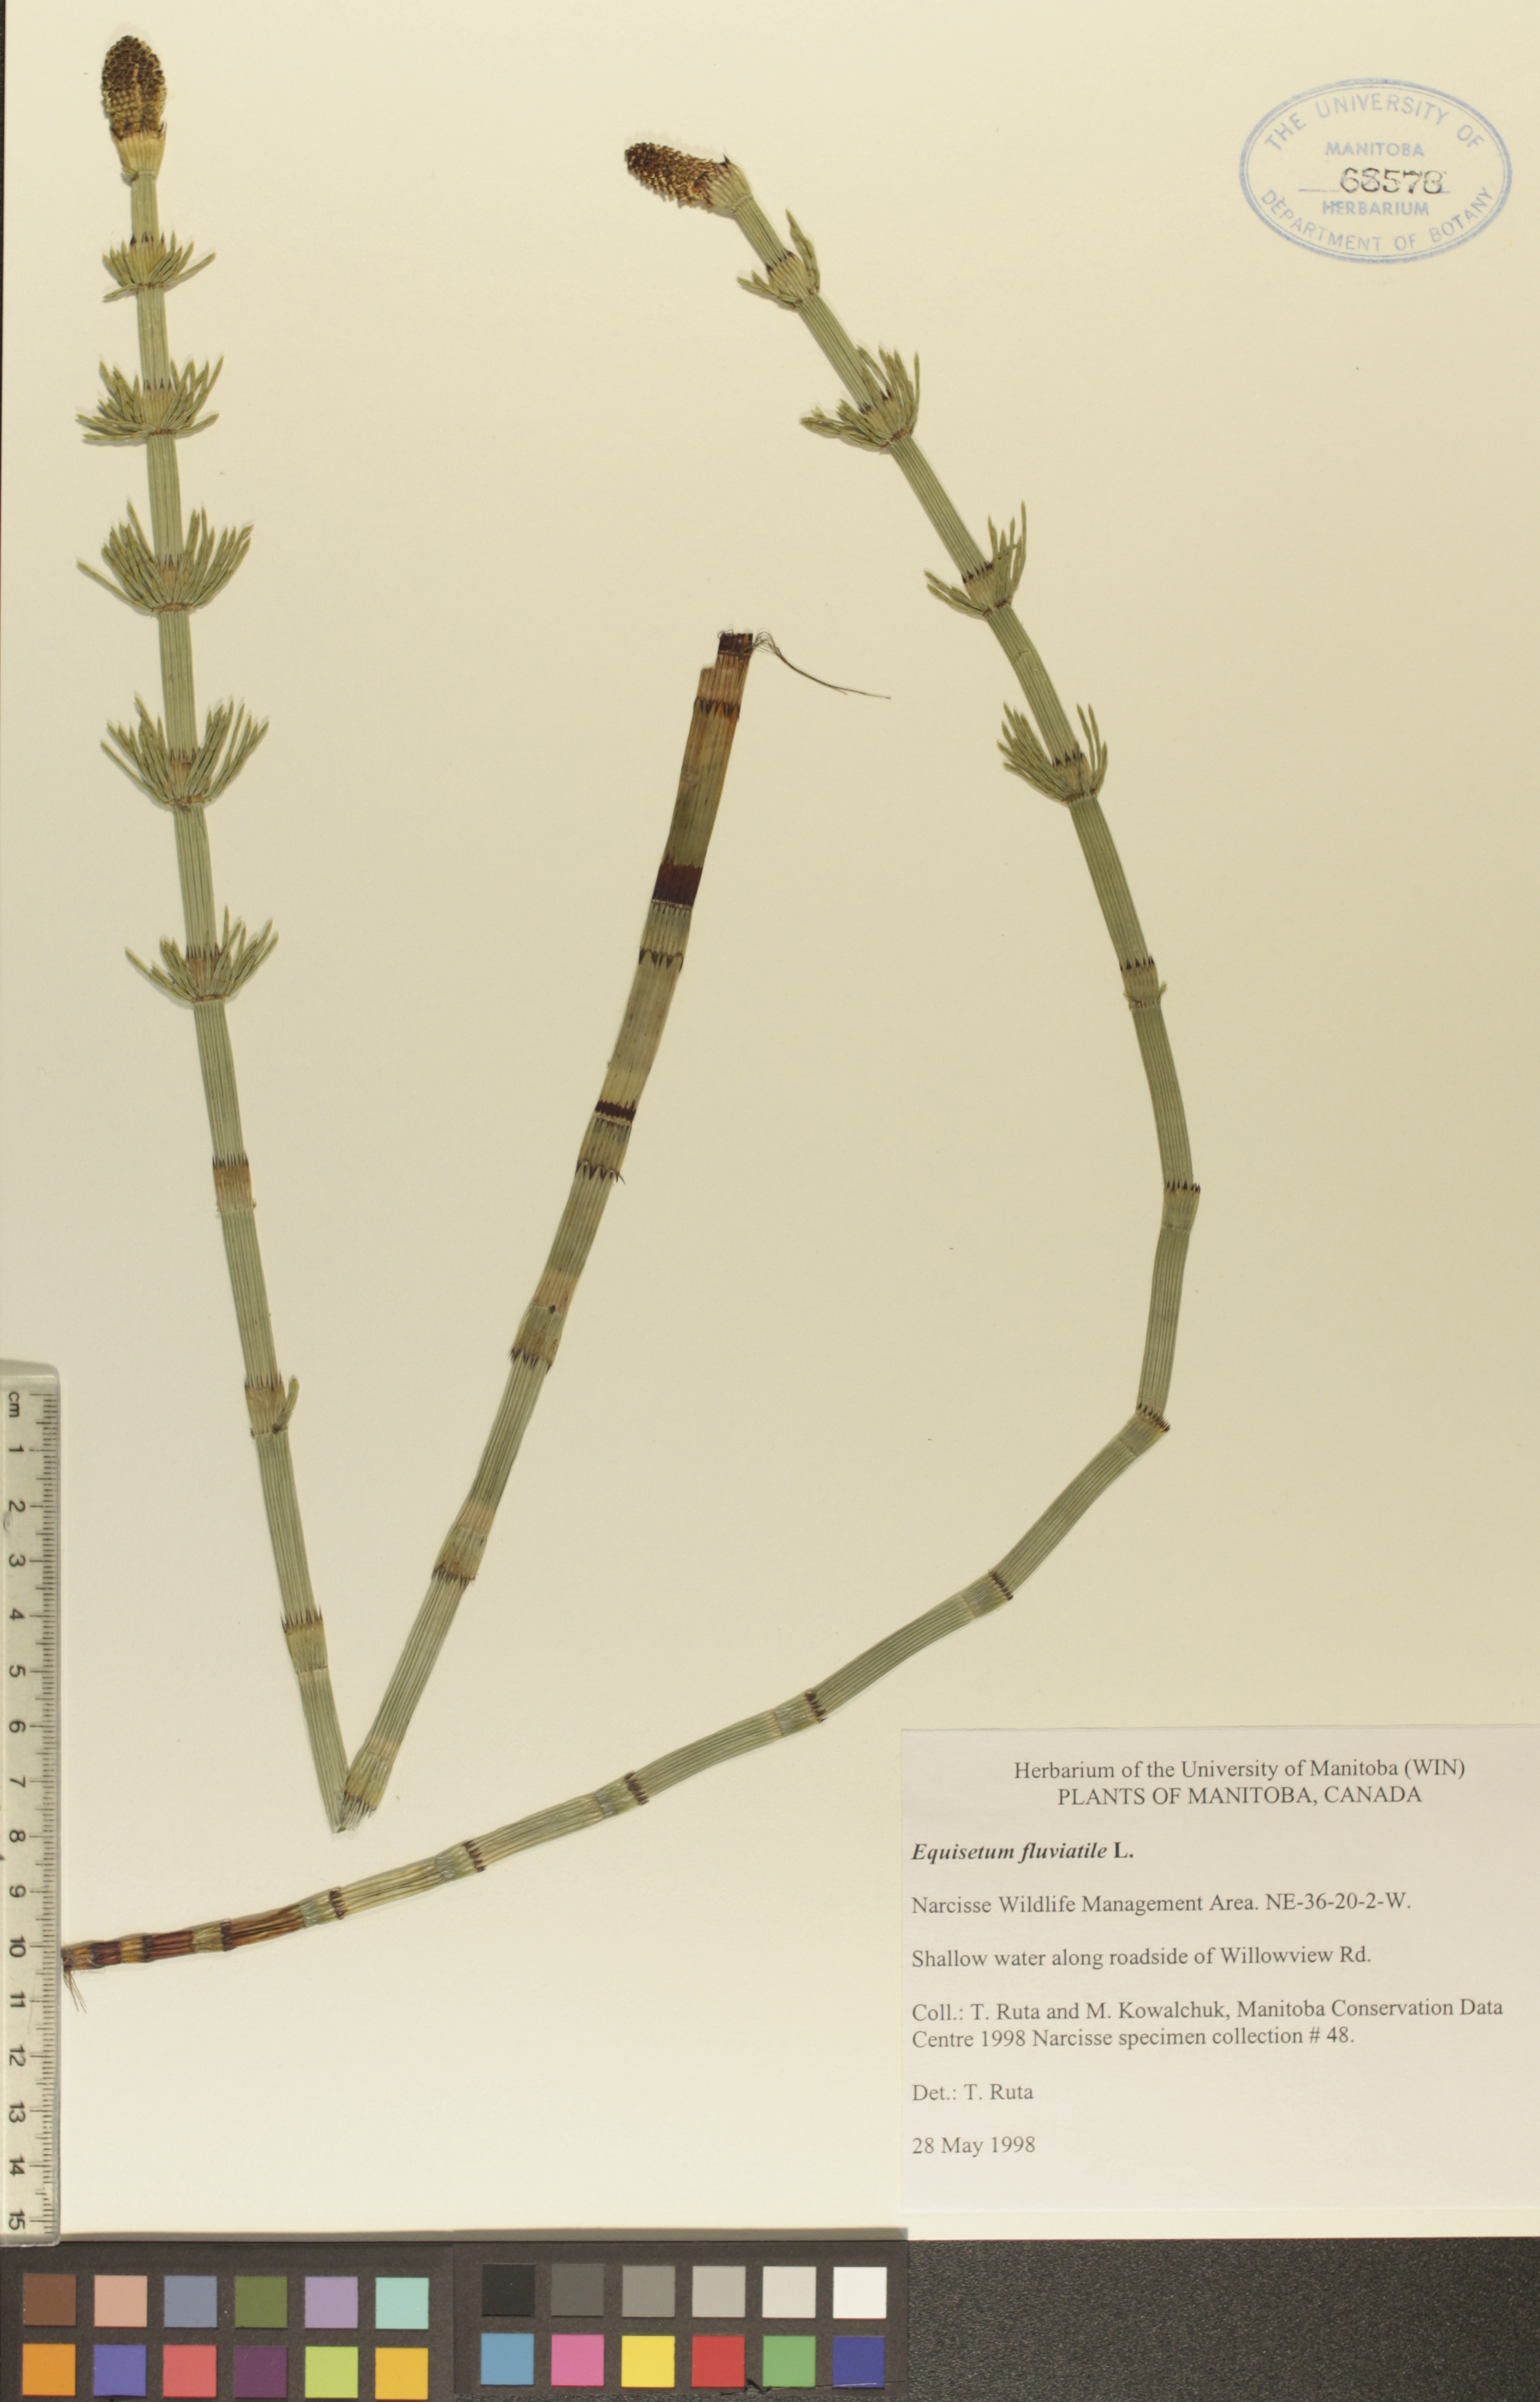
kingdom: Plantae
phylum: Tracheophyta
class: Polypodiopsida
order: Equisetales
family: Equisetaceae
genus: Equisetum
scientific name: Equisetum fluviatile
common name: Water horsetail
